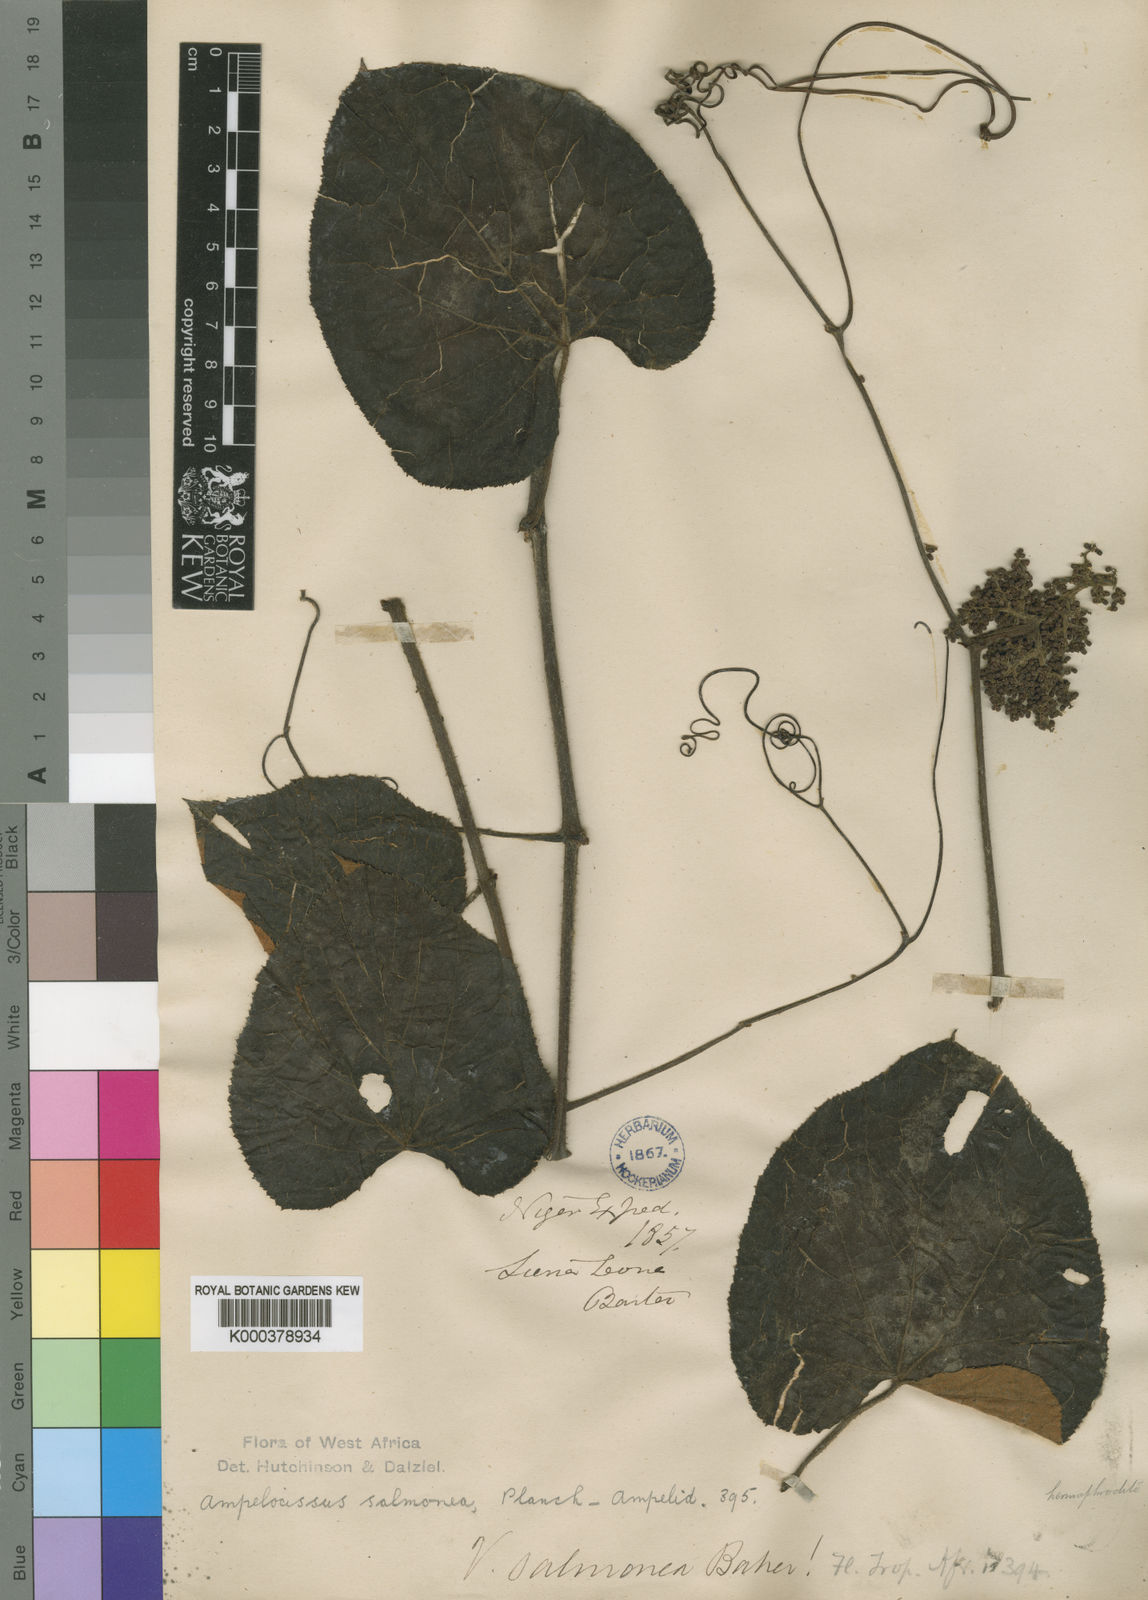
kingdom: Plantae
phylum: Tracheophyta
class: Magnoliopsida
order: Vitales
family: Vitaceae
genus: Ampelocissus
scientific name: Ampelocissus leonensis
